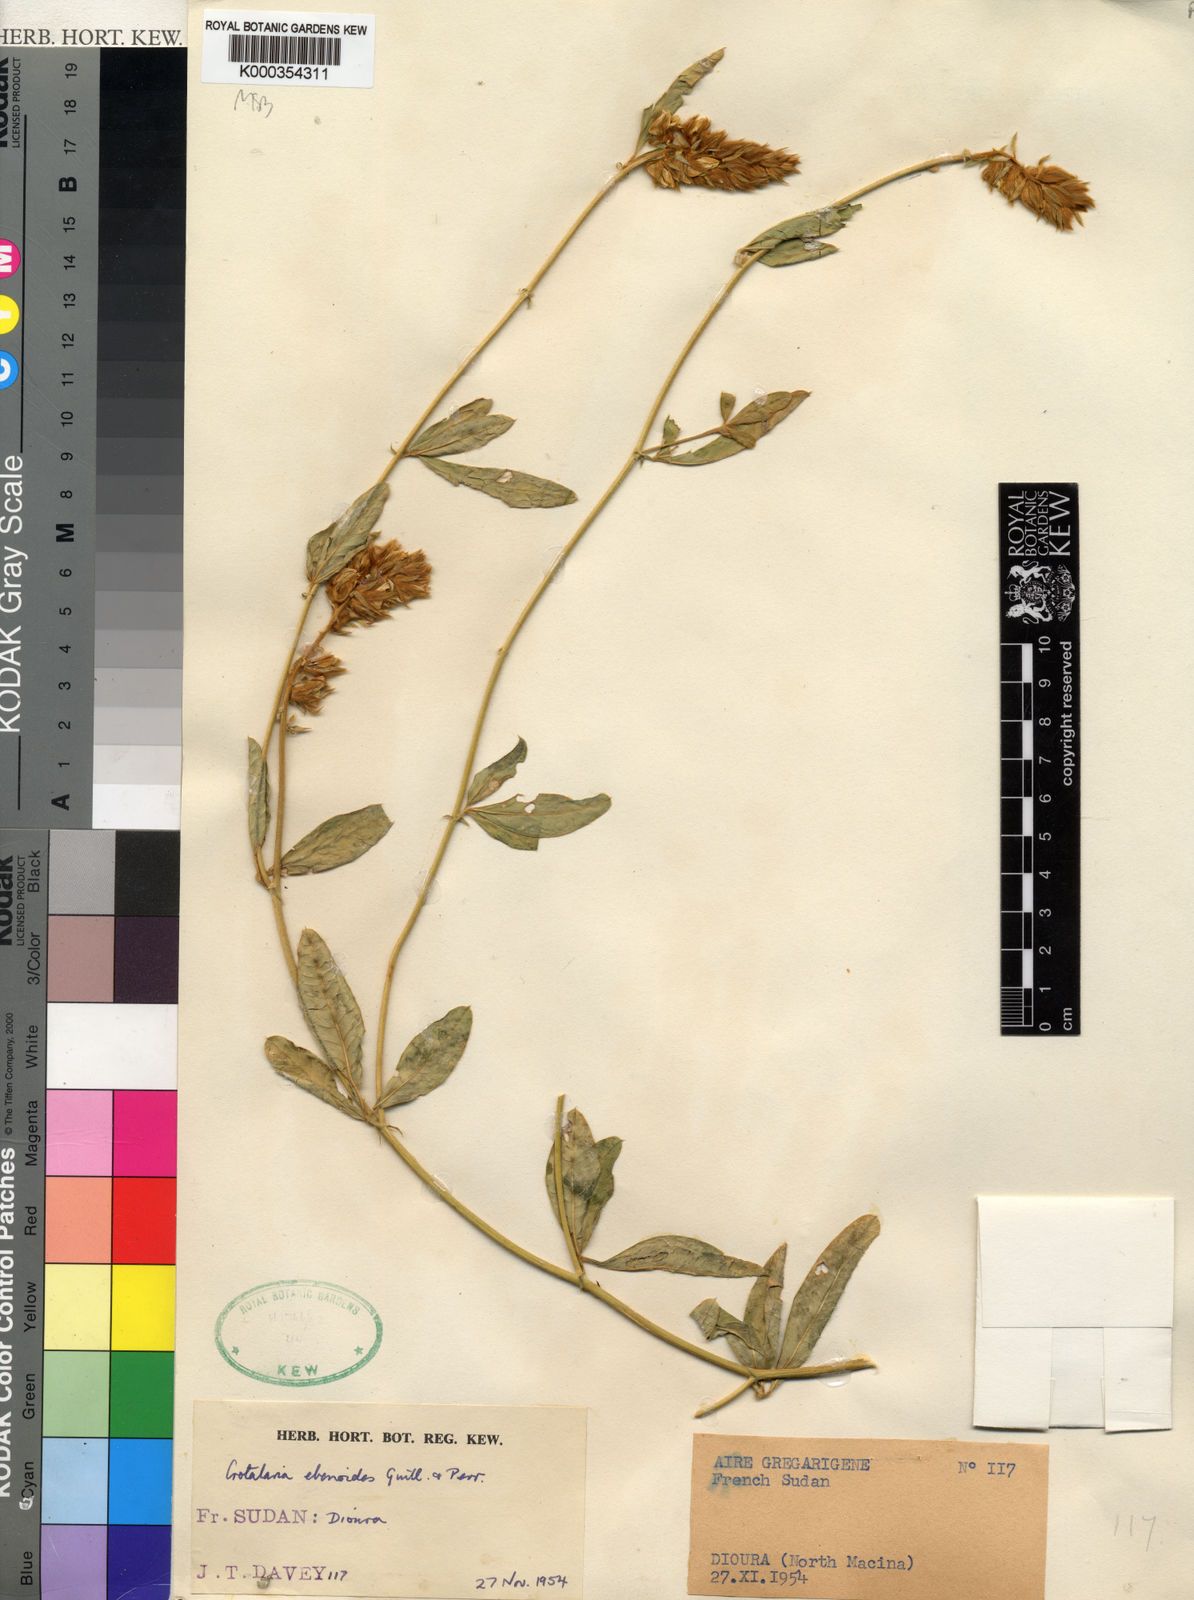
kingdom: Plantae
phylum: Tracheophyta
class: Magnoliopsida
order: Fabales
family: Fabaceae
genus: Crotalaria
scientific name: Crotalaria ebenoides
